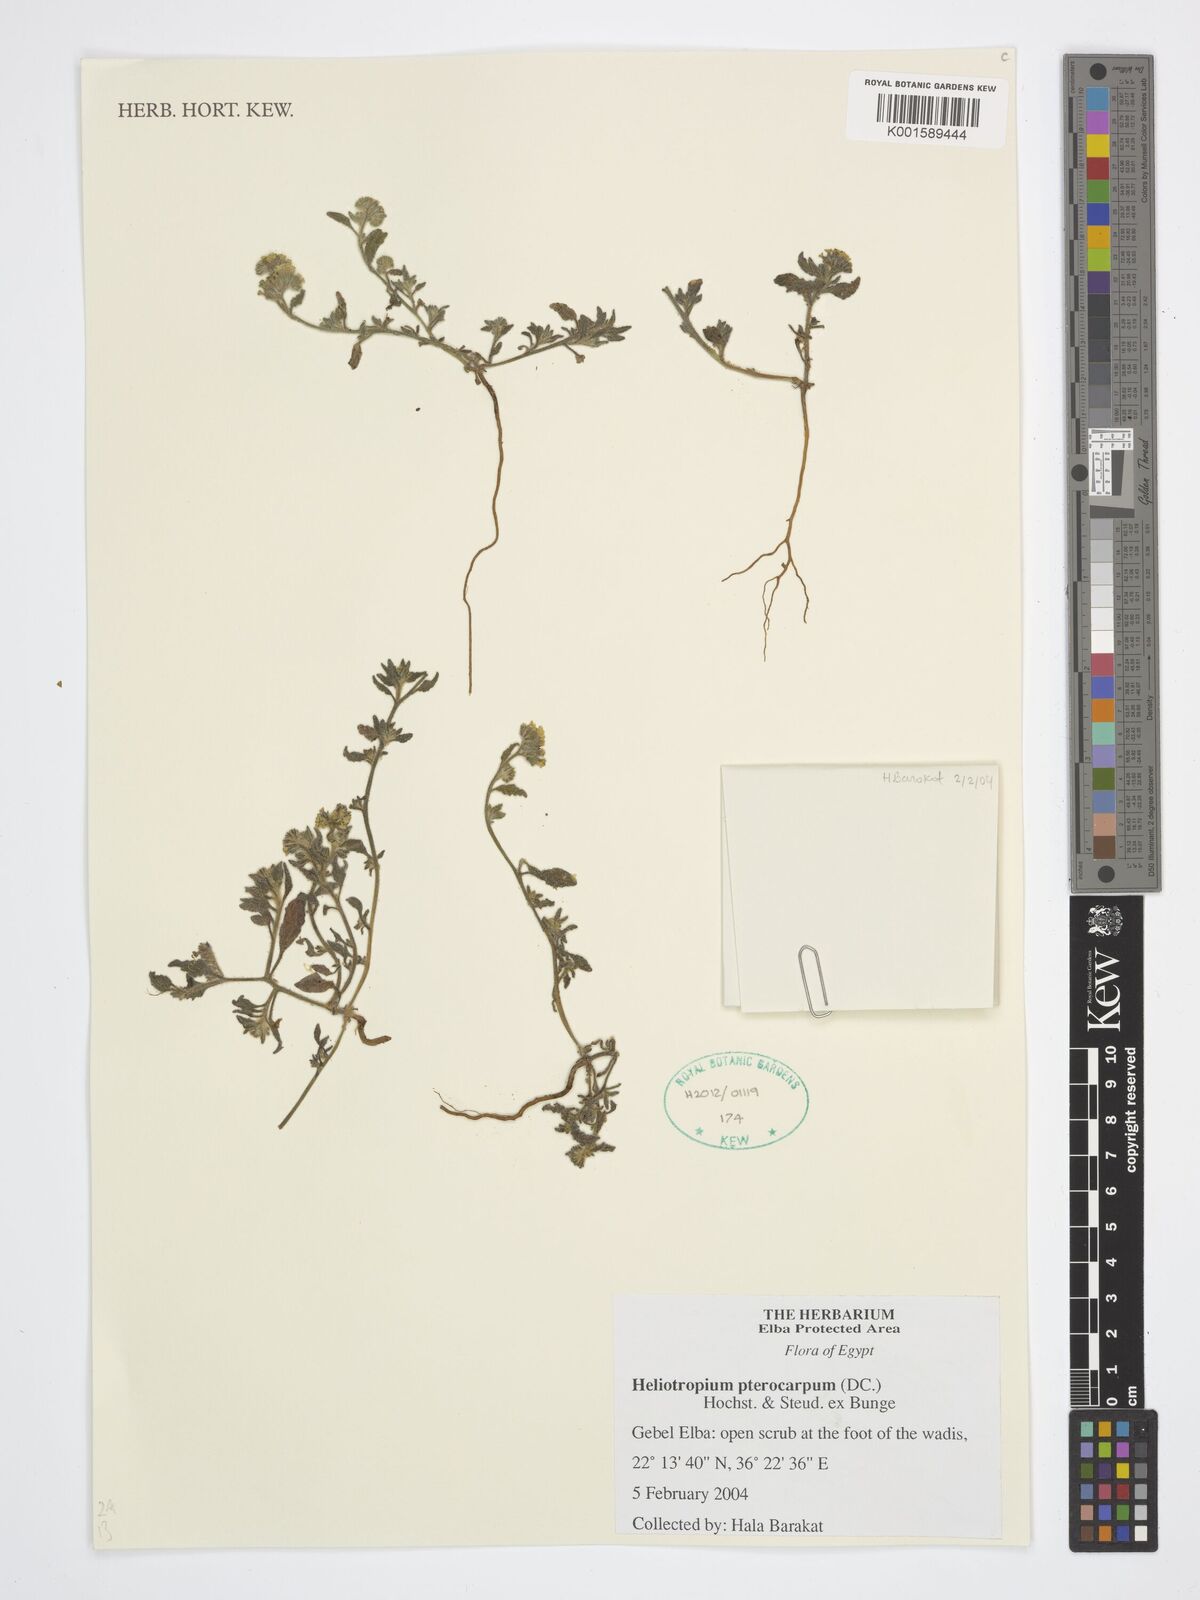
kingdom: Plantae
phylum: Tracheophyta
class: Magnoliopsida
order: Boraginales
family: Heliotropiaceae
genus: Heliotropium
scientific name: Heliotropium pterocarpum
